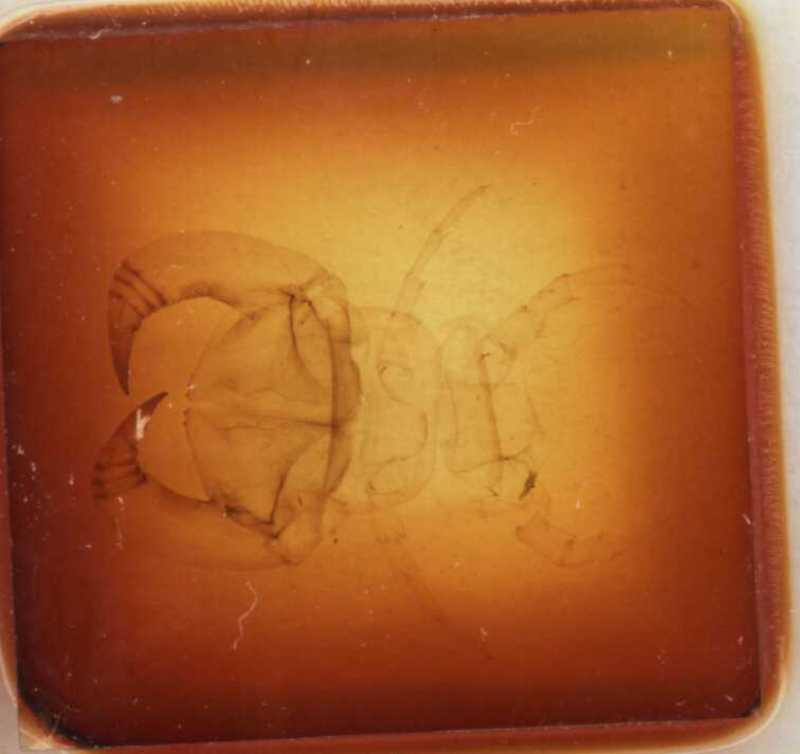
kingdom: Animalia
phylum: Arthropoda
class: Chilopoda
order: Lithobiomorpha
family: Lithobiidae
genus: Pterygotergum
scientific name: Pterygotergum svenhedini
